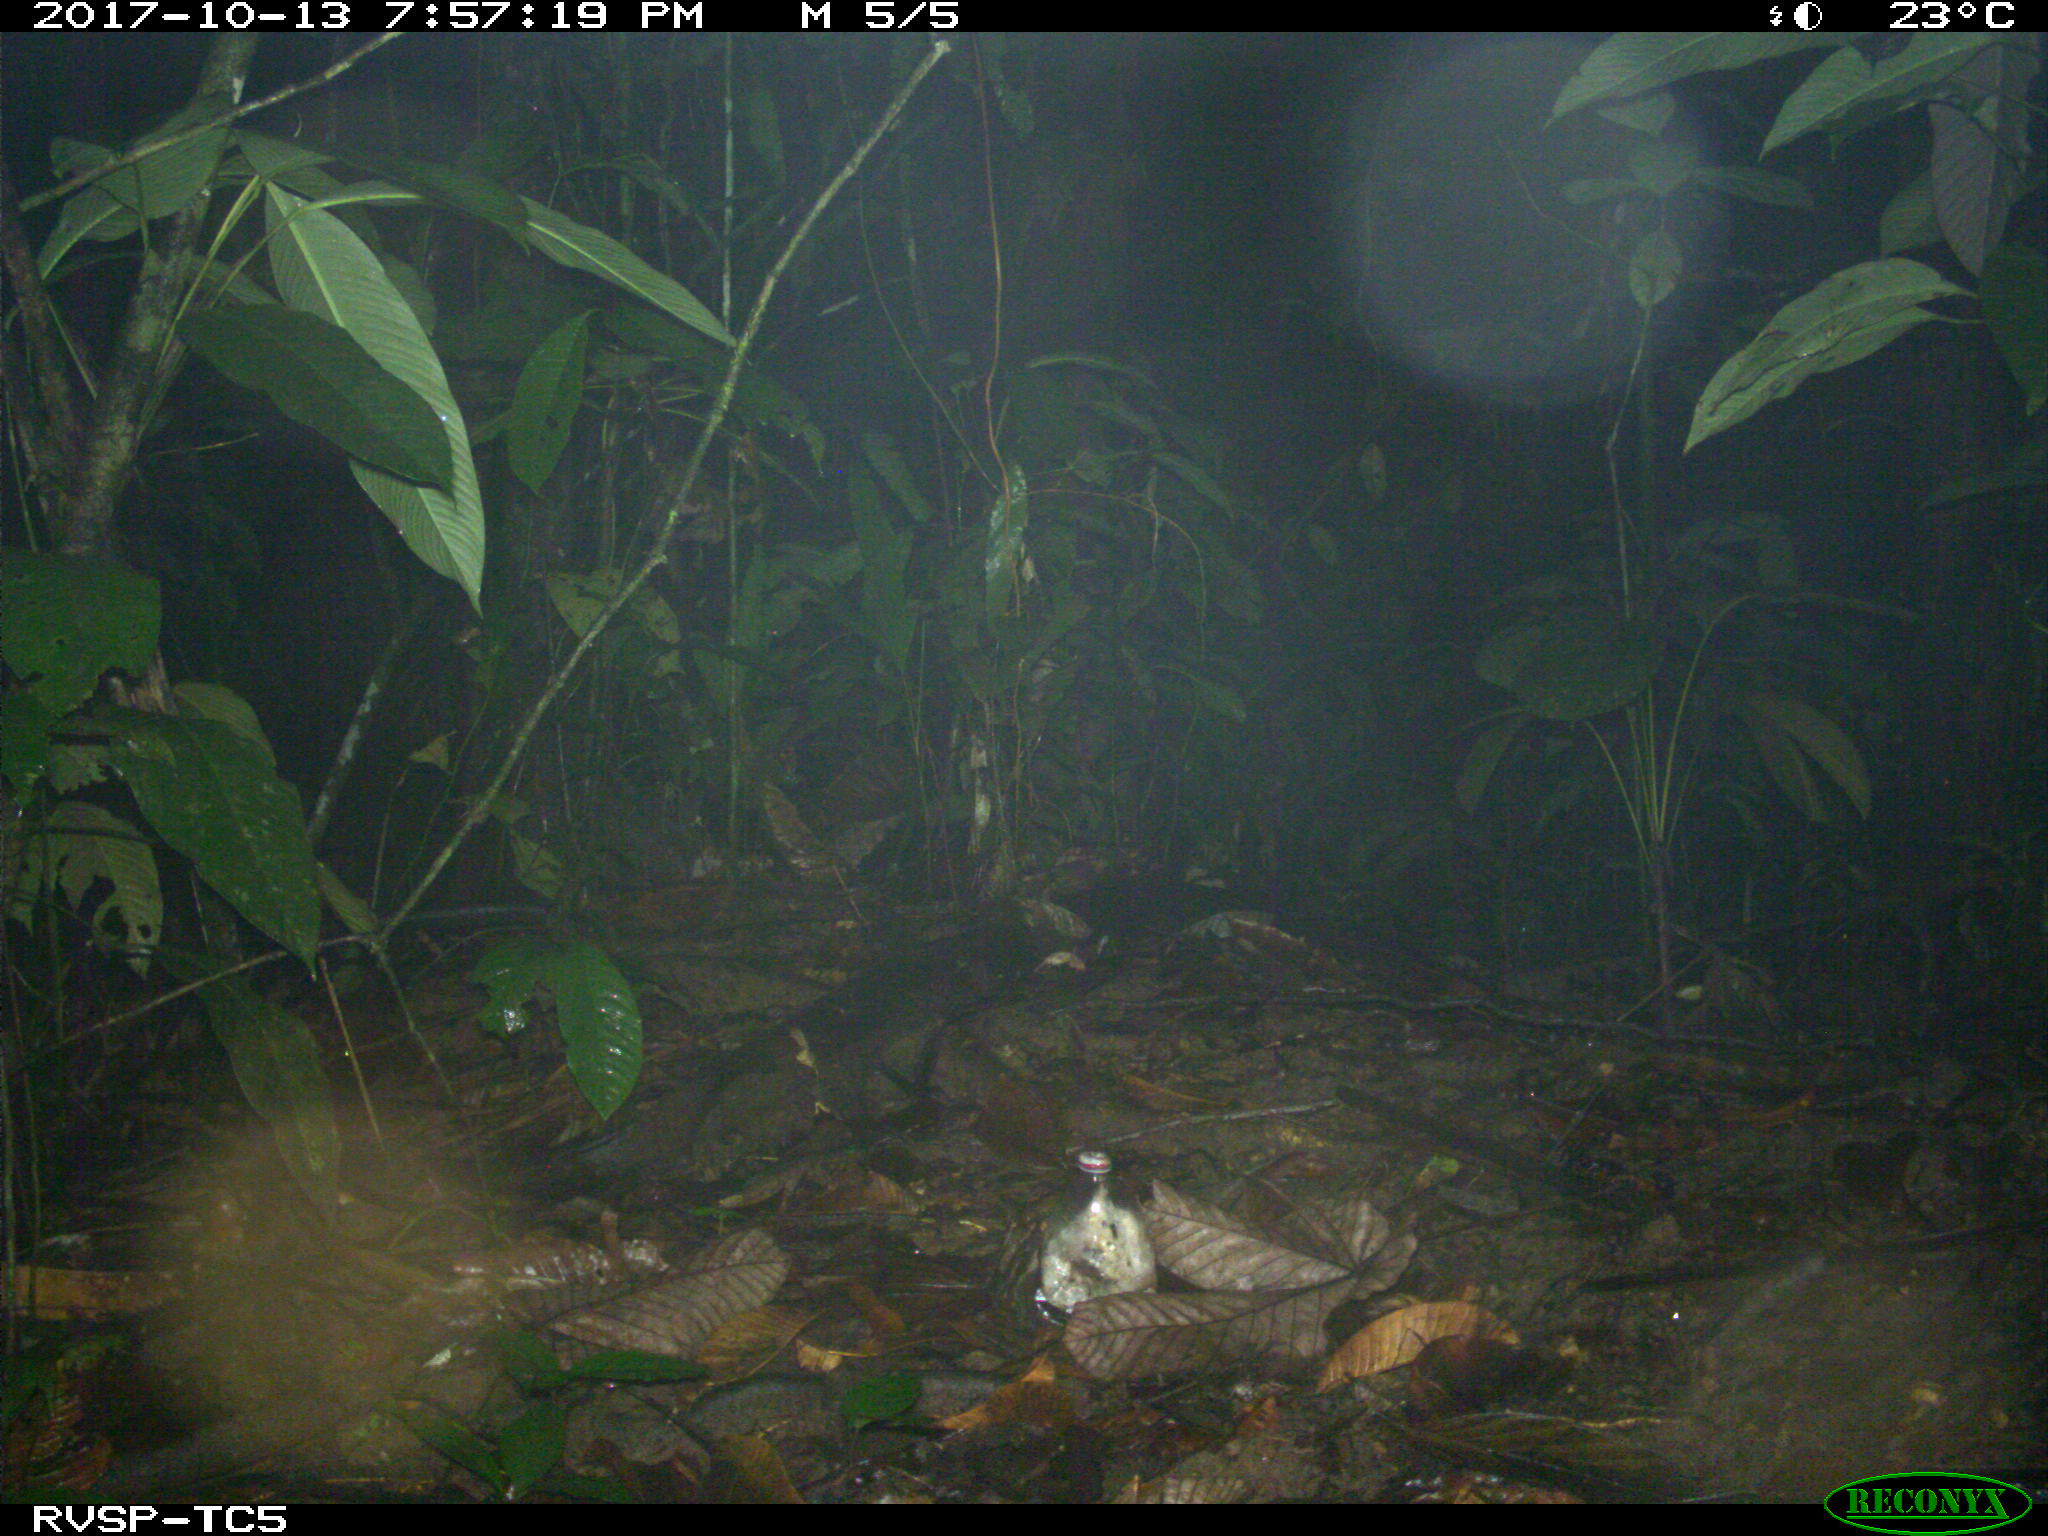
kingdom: Animalia
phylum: Chordata
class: Mammalia
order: Rodentia
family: Cuniculidae
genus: Cuniculus
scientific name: Cuniculus paca
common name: Lowland paca
